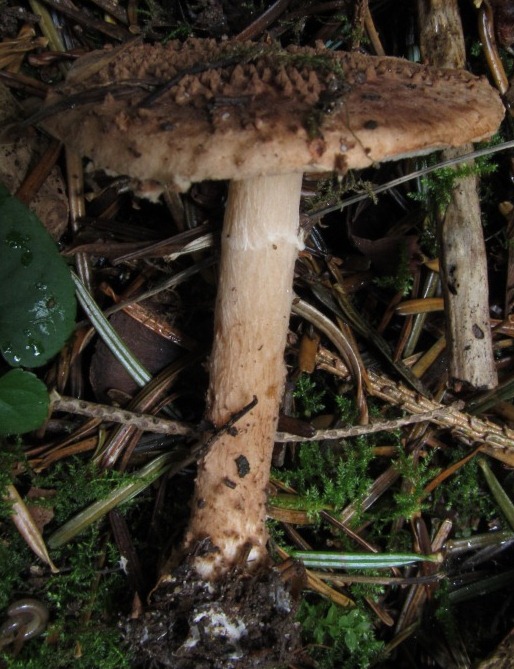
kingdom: Fungi
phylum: Basidiomycota
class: Agaricomycetes
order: Agaricales
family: Agaricaceae
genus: Echinoderma
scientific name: Echinoderma perplexum
